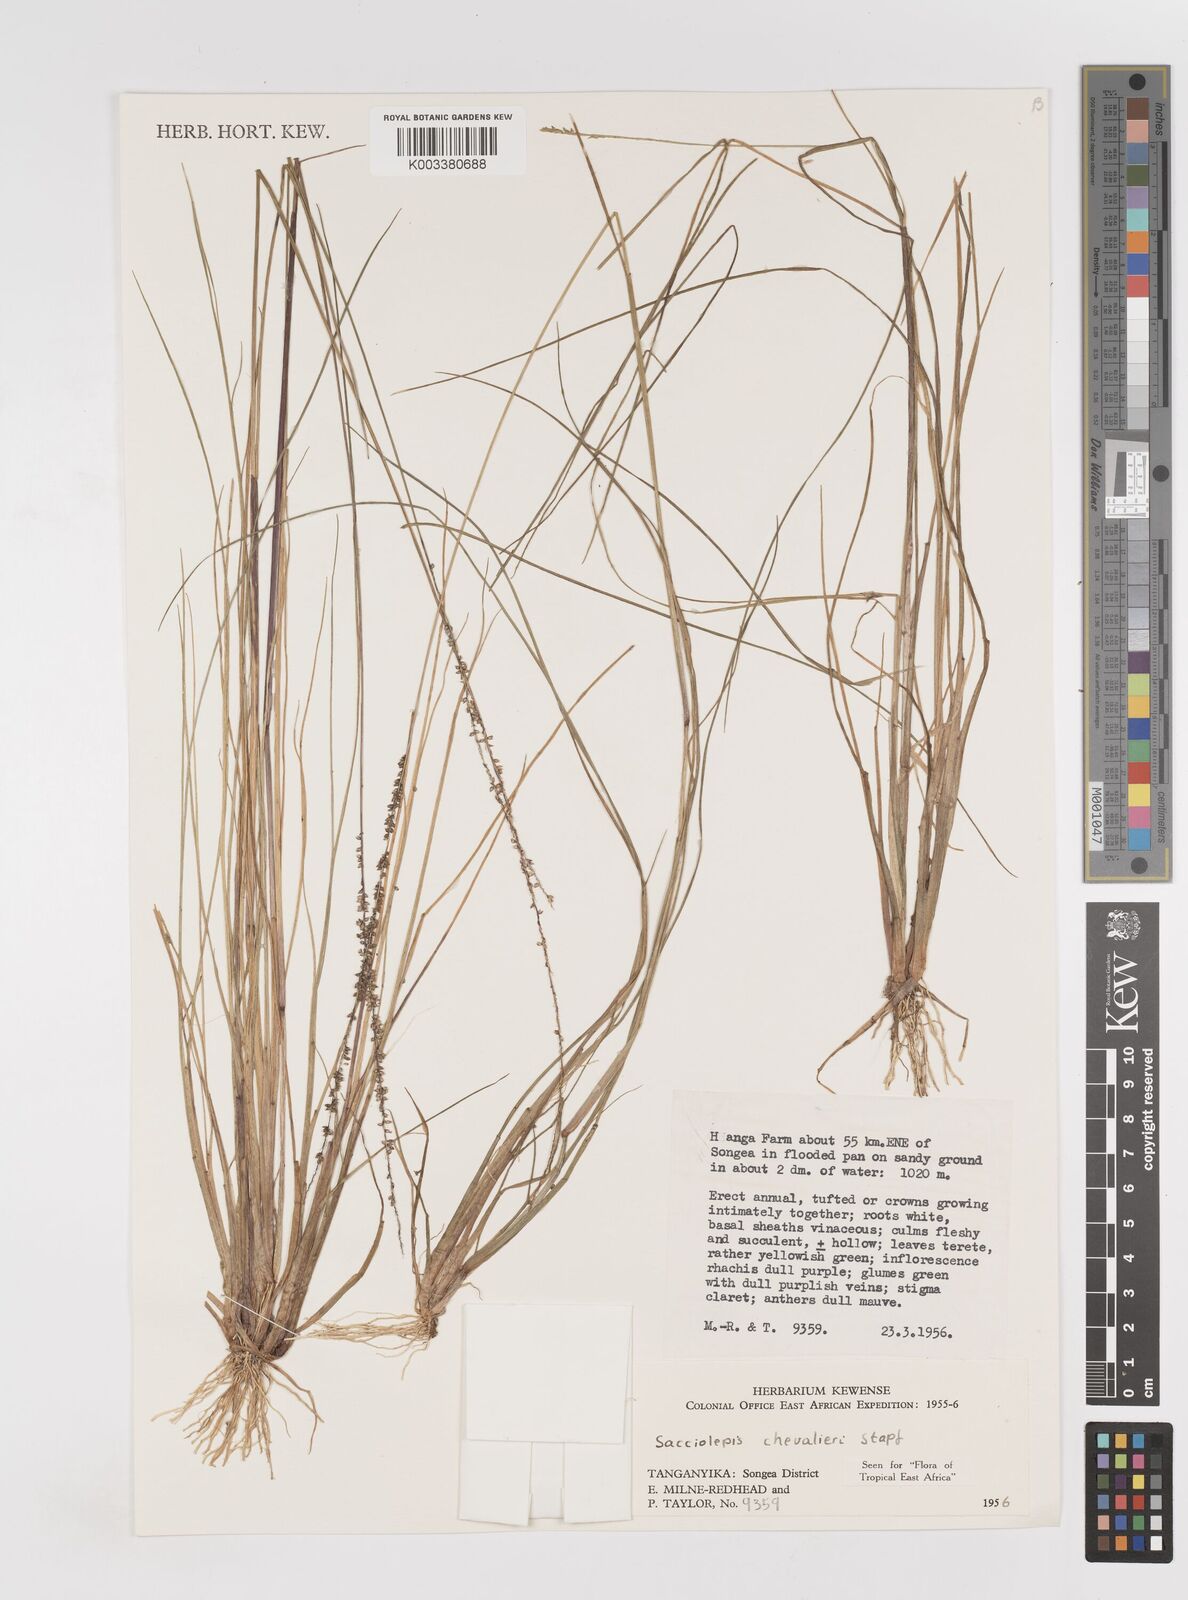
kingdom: Plantae
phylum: Tracheophyta
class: Liliopsida
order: Poales
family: Poaceae
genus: Sacciolepis
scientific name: Sacciolepis chevalieri
